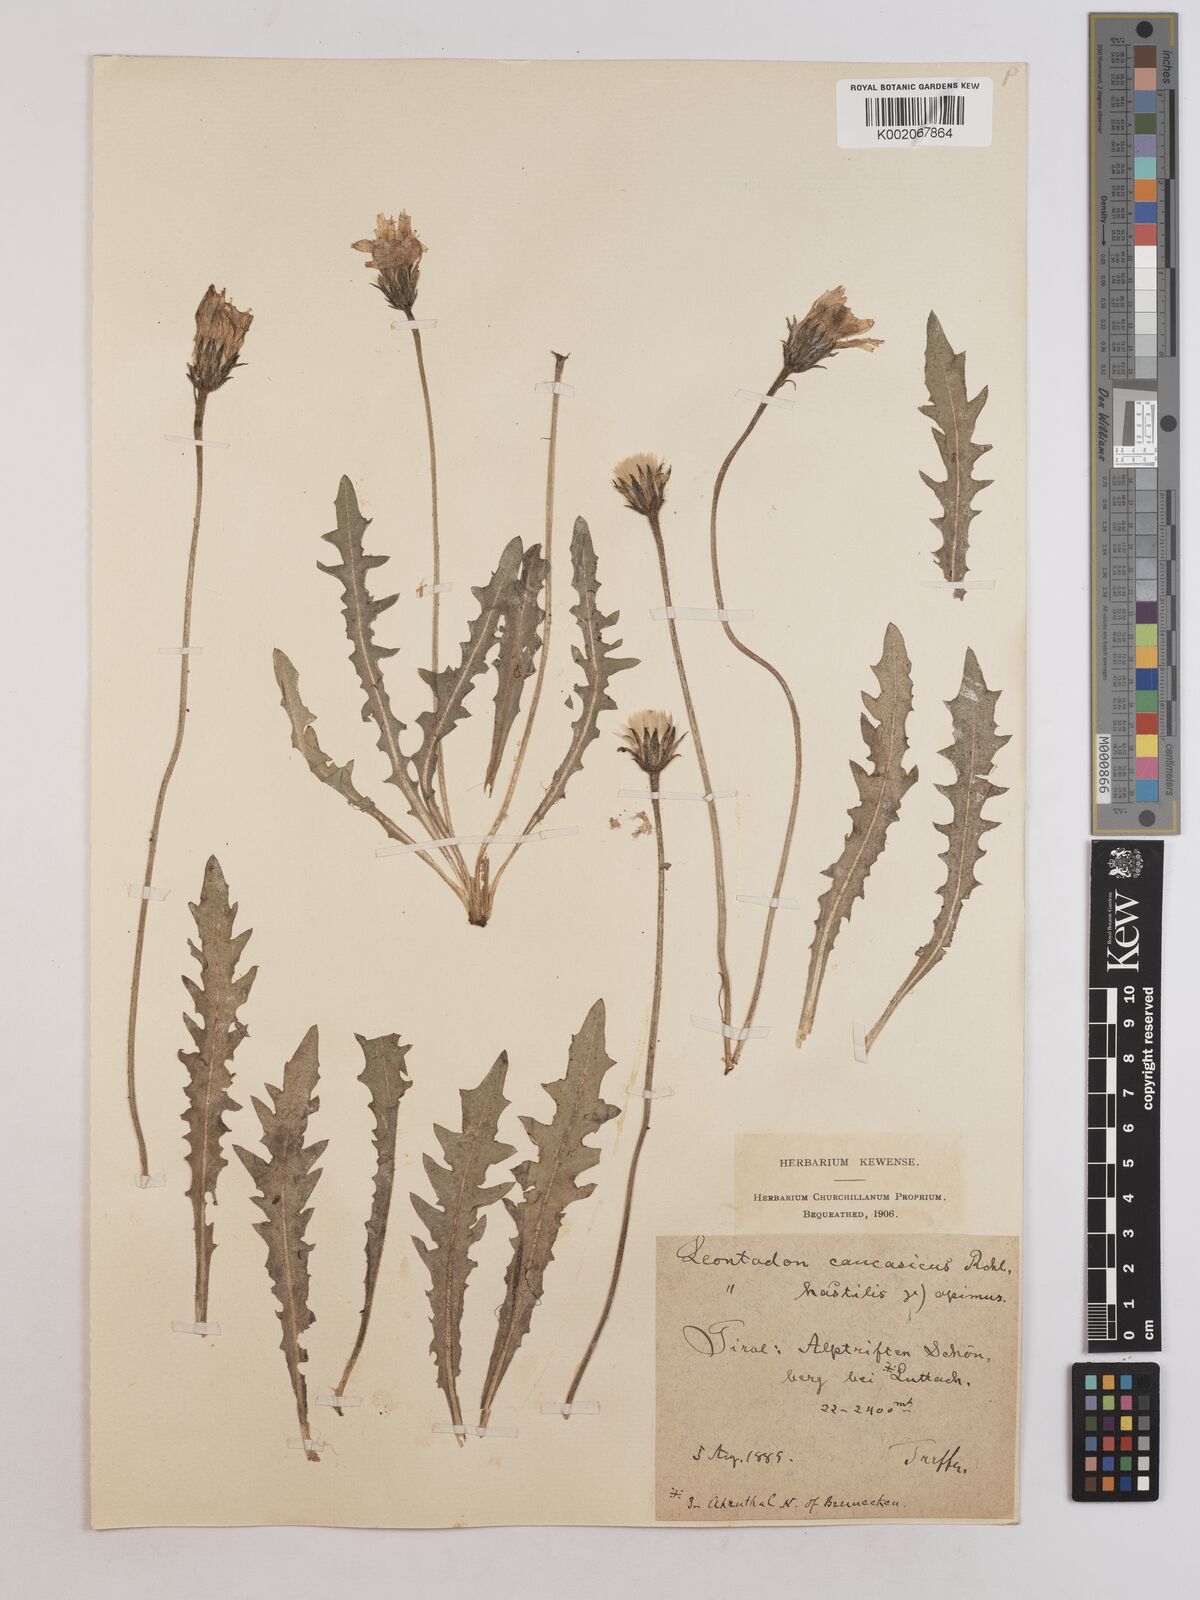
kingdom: Plantae
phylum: Tracheophyta
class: Magnoliopsida
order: Asterales
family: Asteraceae
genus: Leontodon
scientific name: Leontodon hispidus
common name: Rough hawkbit
